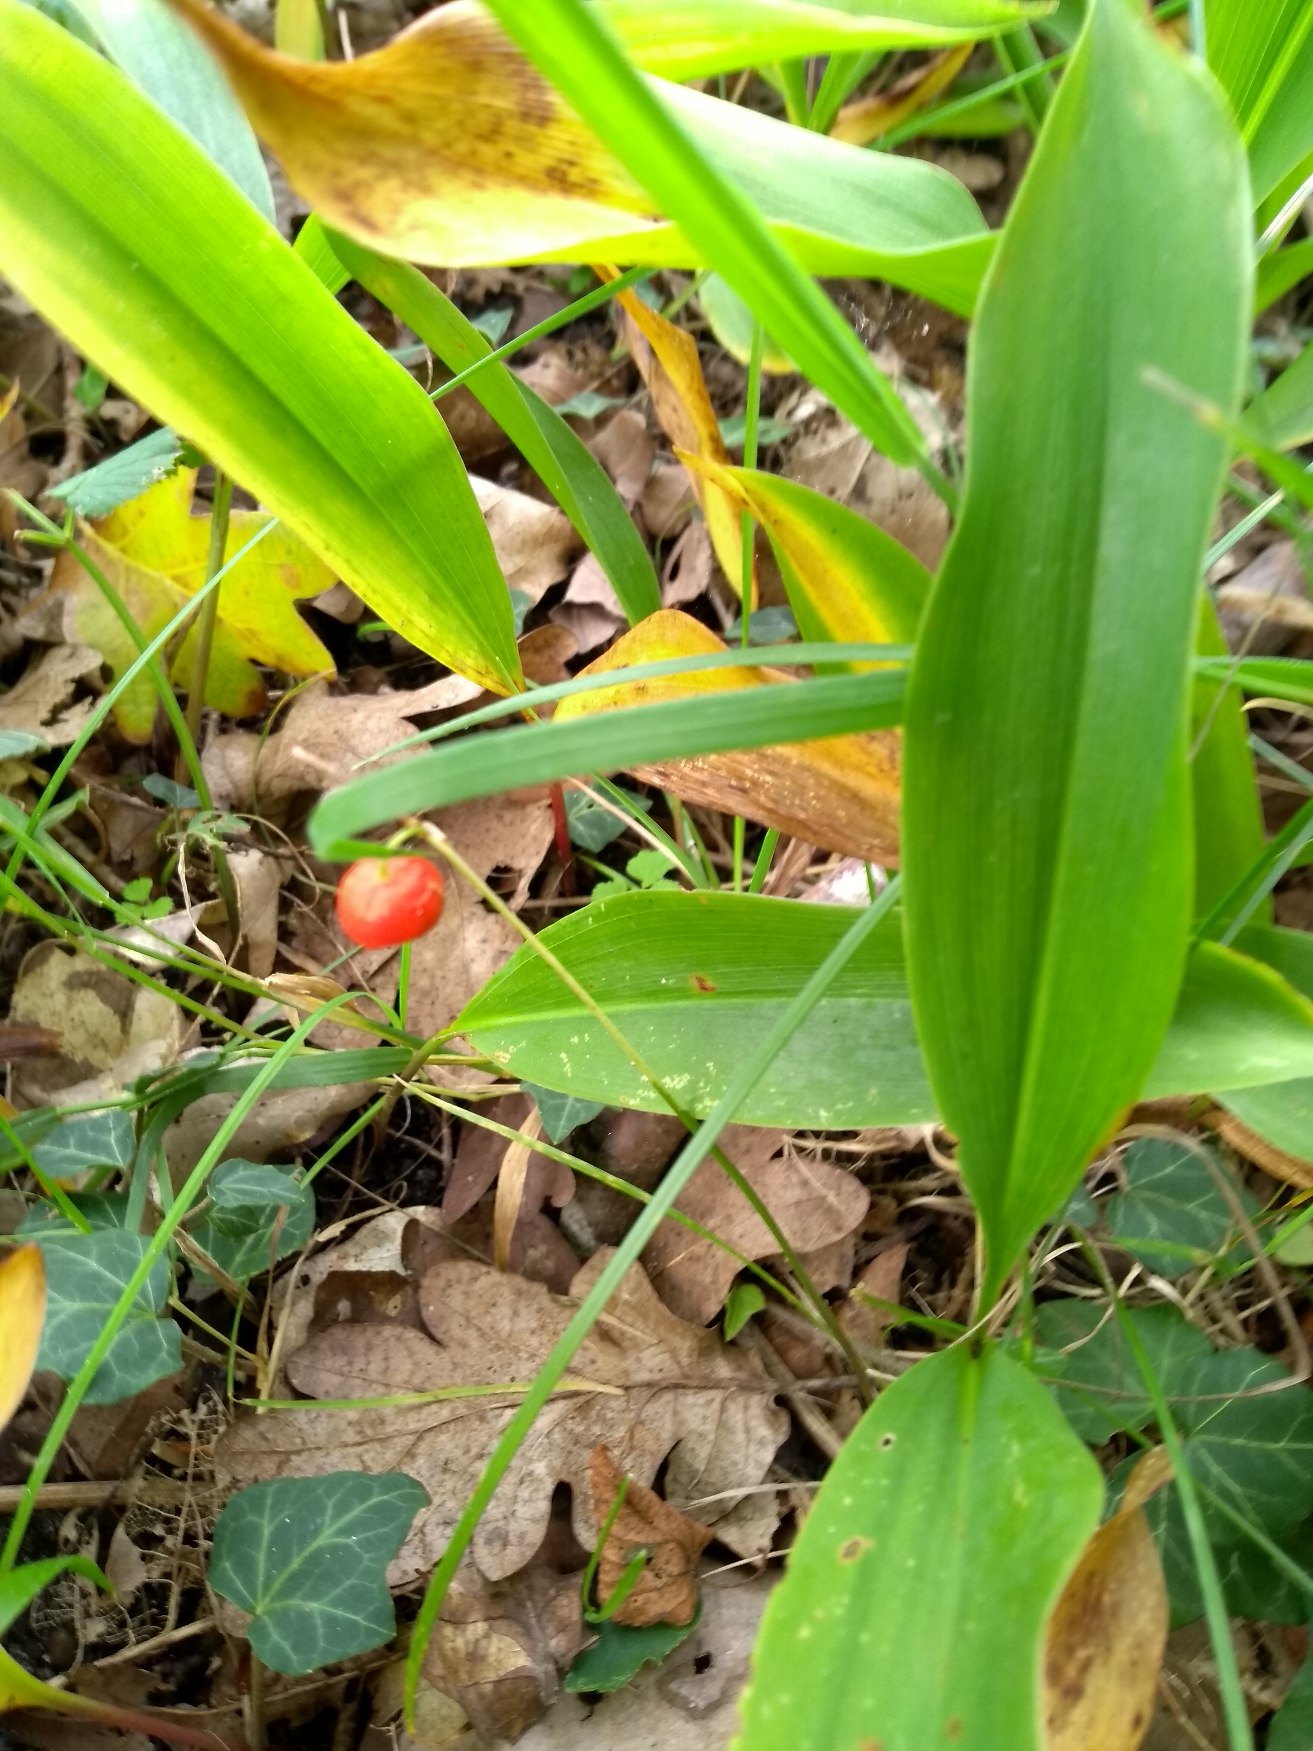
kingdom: Plantae
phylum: Tracheophyta
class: Liliopsida
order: Asparagales
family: Asparagaceae
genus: Convallaria
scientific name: Convallaria majalis
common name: Liljekonval
